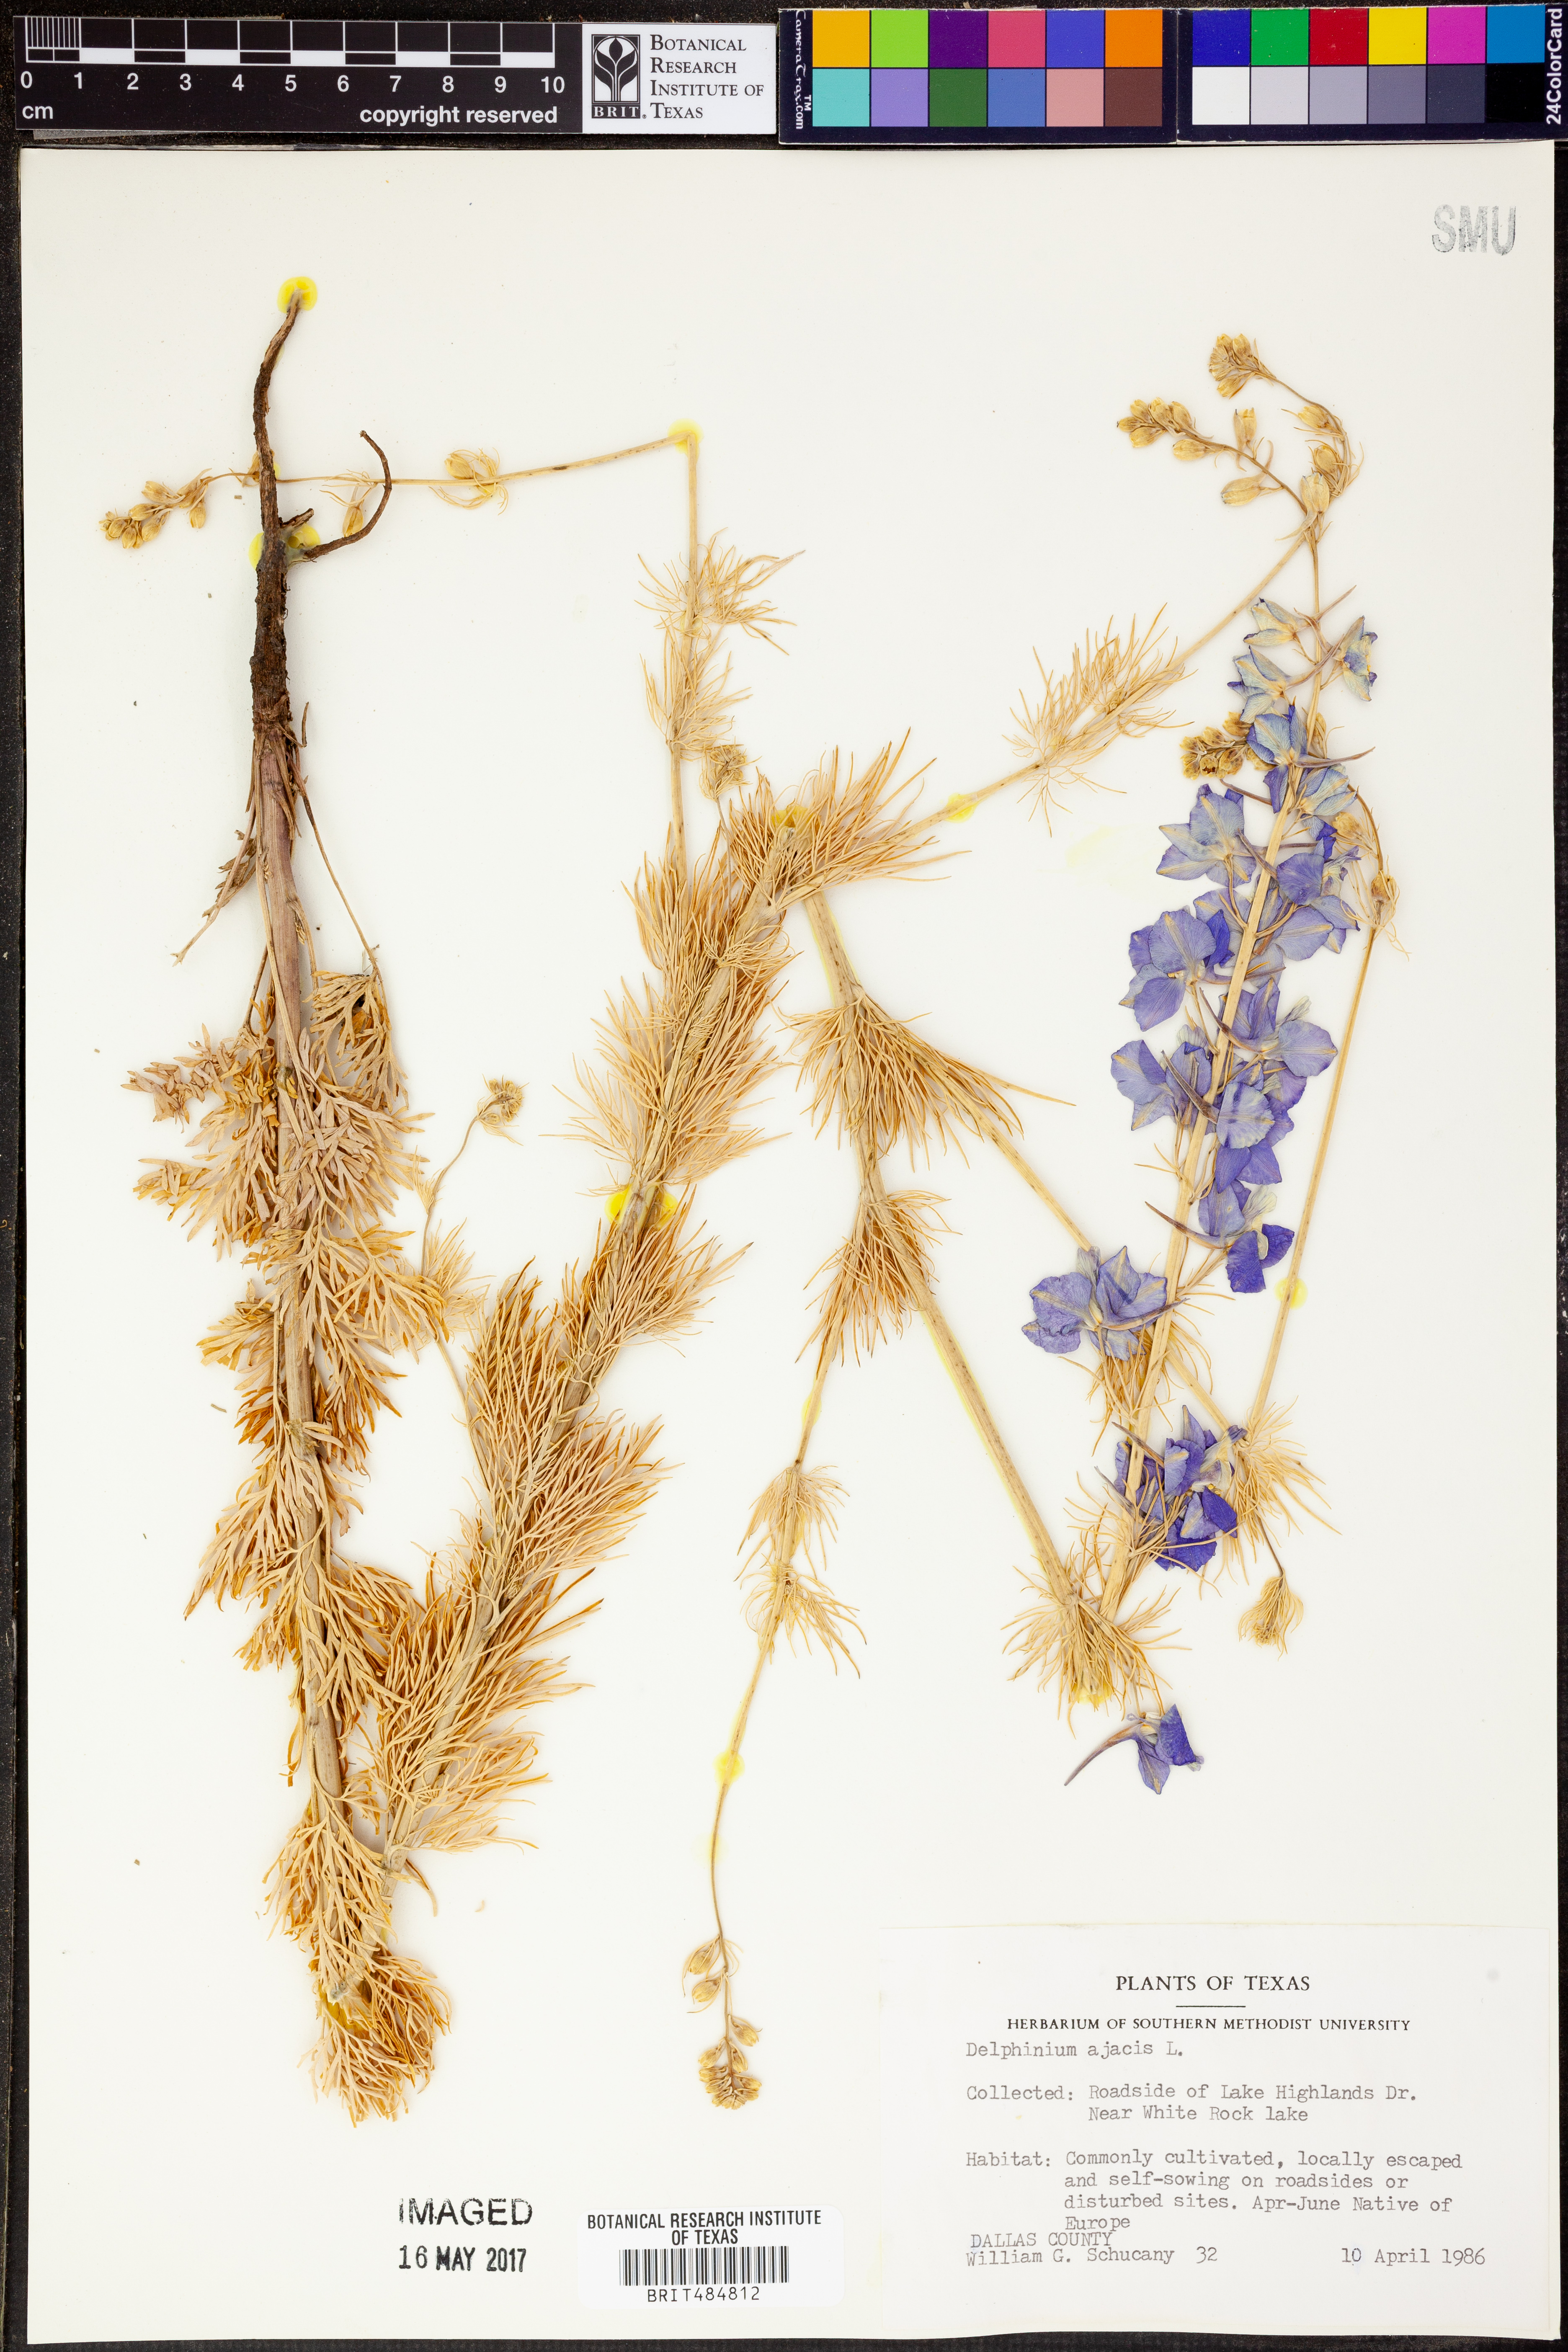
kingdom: Plantae
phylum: Tracheophyta
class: Magnoliopsida
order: Ranunculales
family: Ranunculaceae
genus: Delphinium
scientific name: Delphinium ajacis
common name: Doubtful knight's-spur
